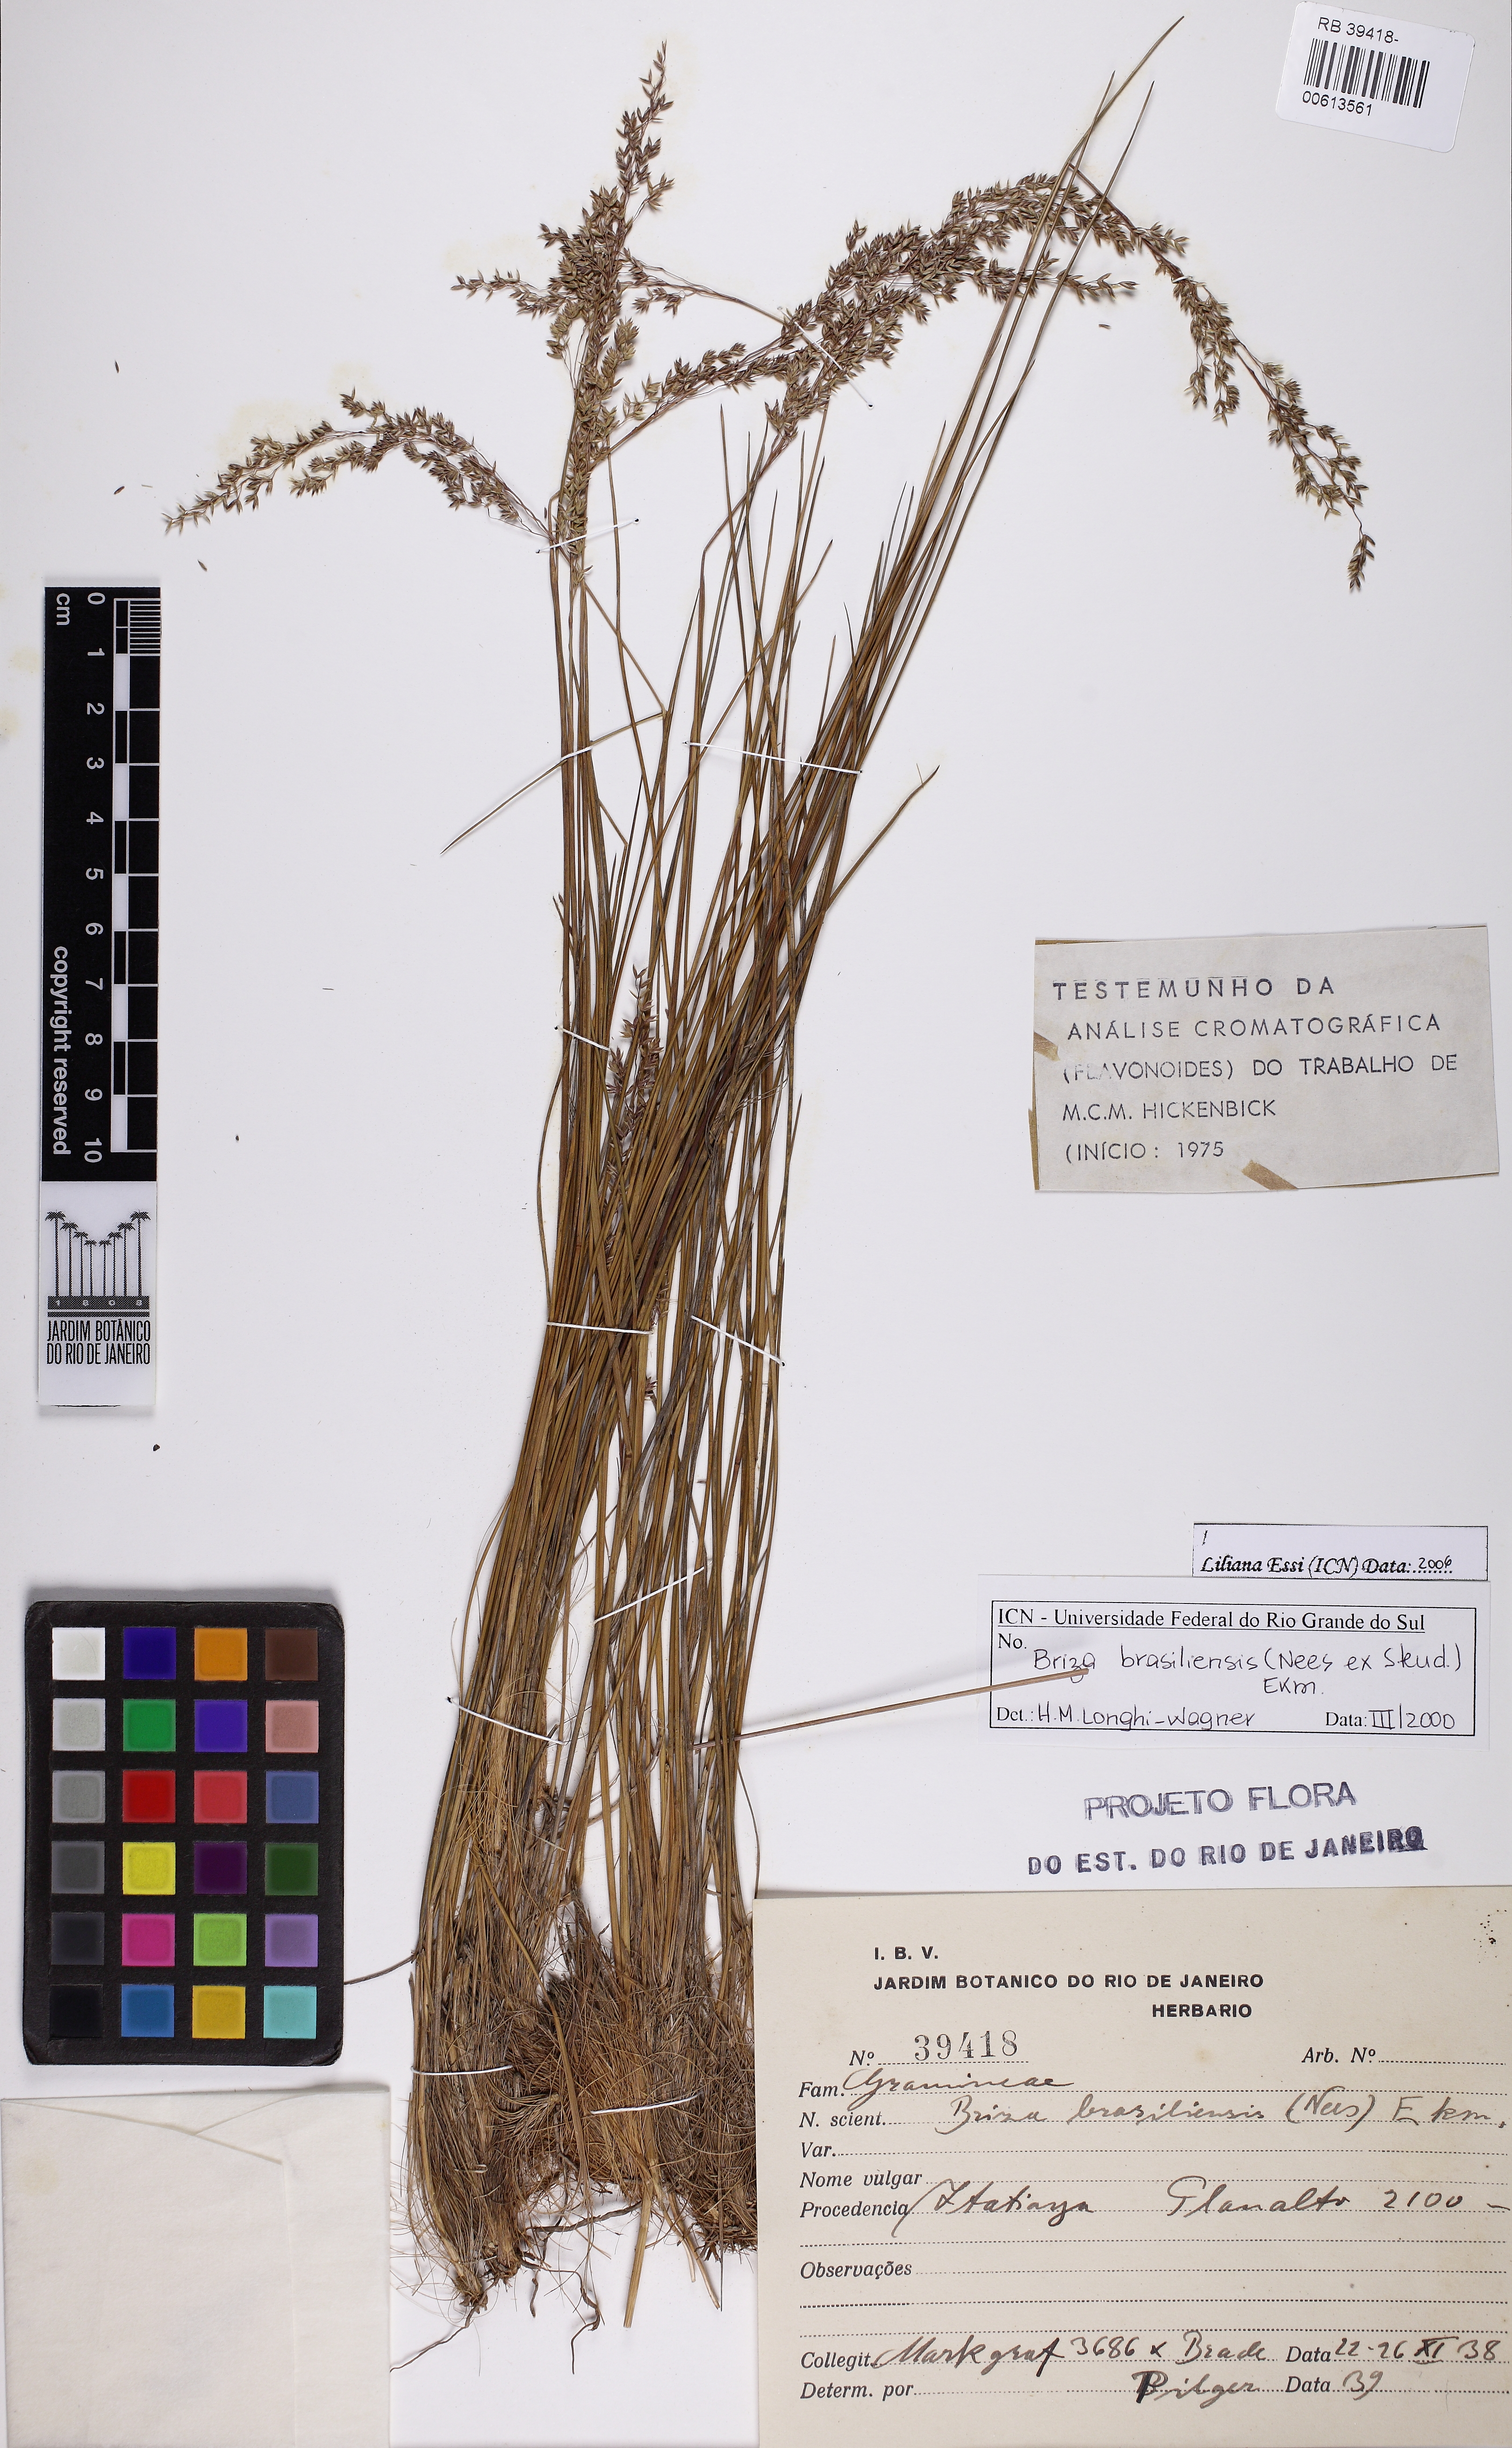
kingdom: Plantae
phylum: Tracheophyta
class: Liliopsida
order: Poales
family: Poaceae
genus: Poidium
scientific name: Poidium brasiliense
